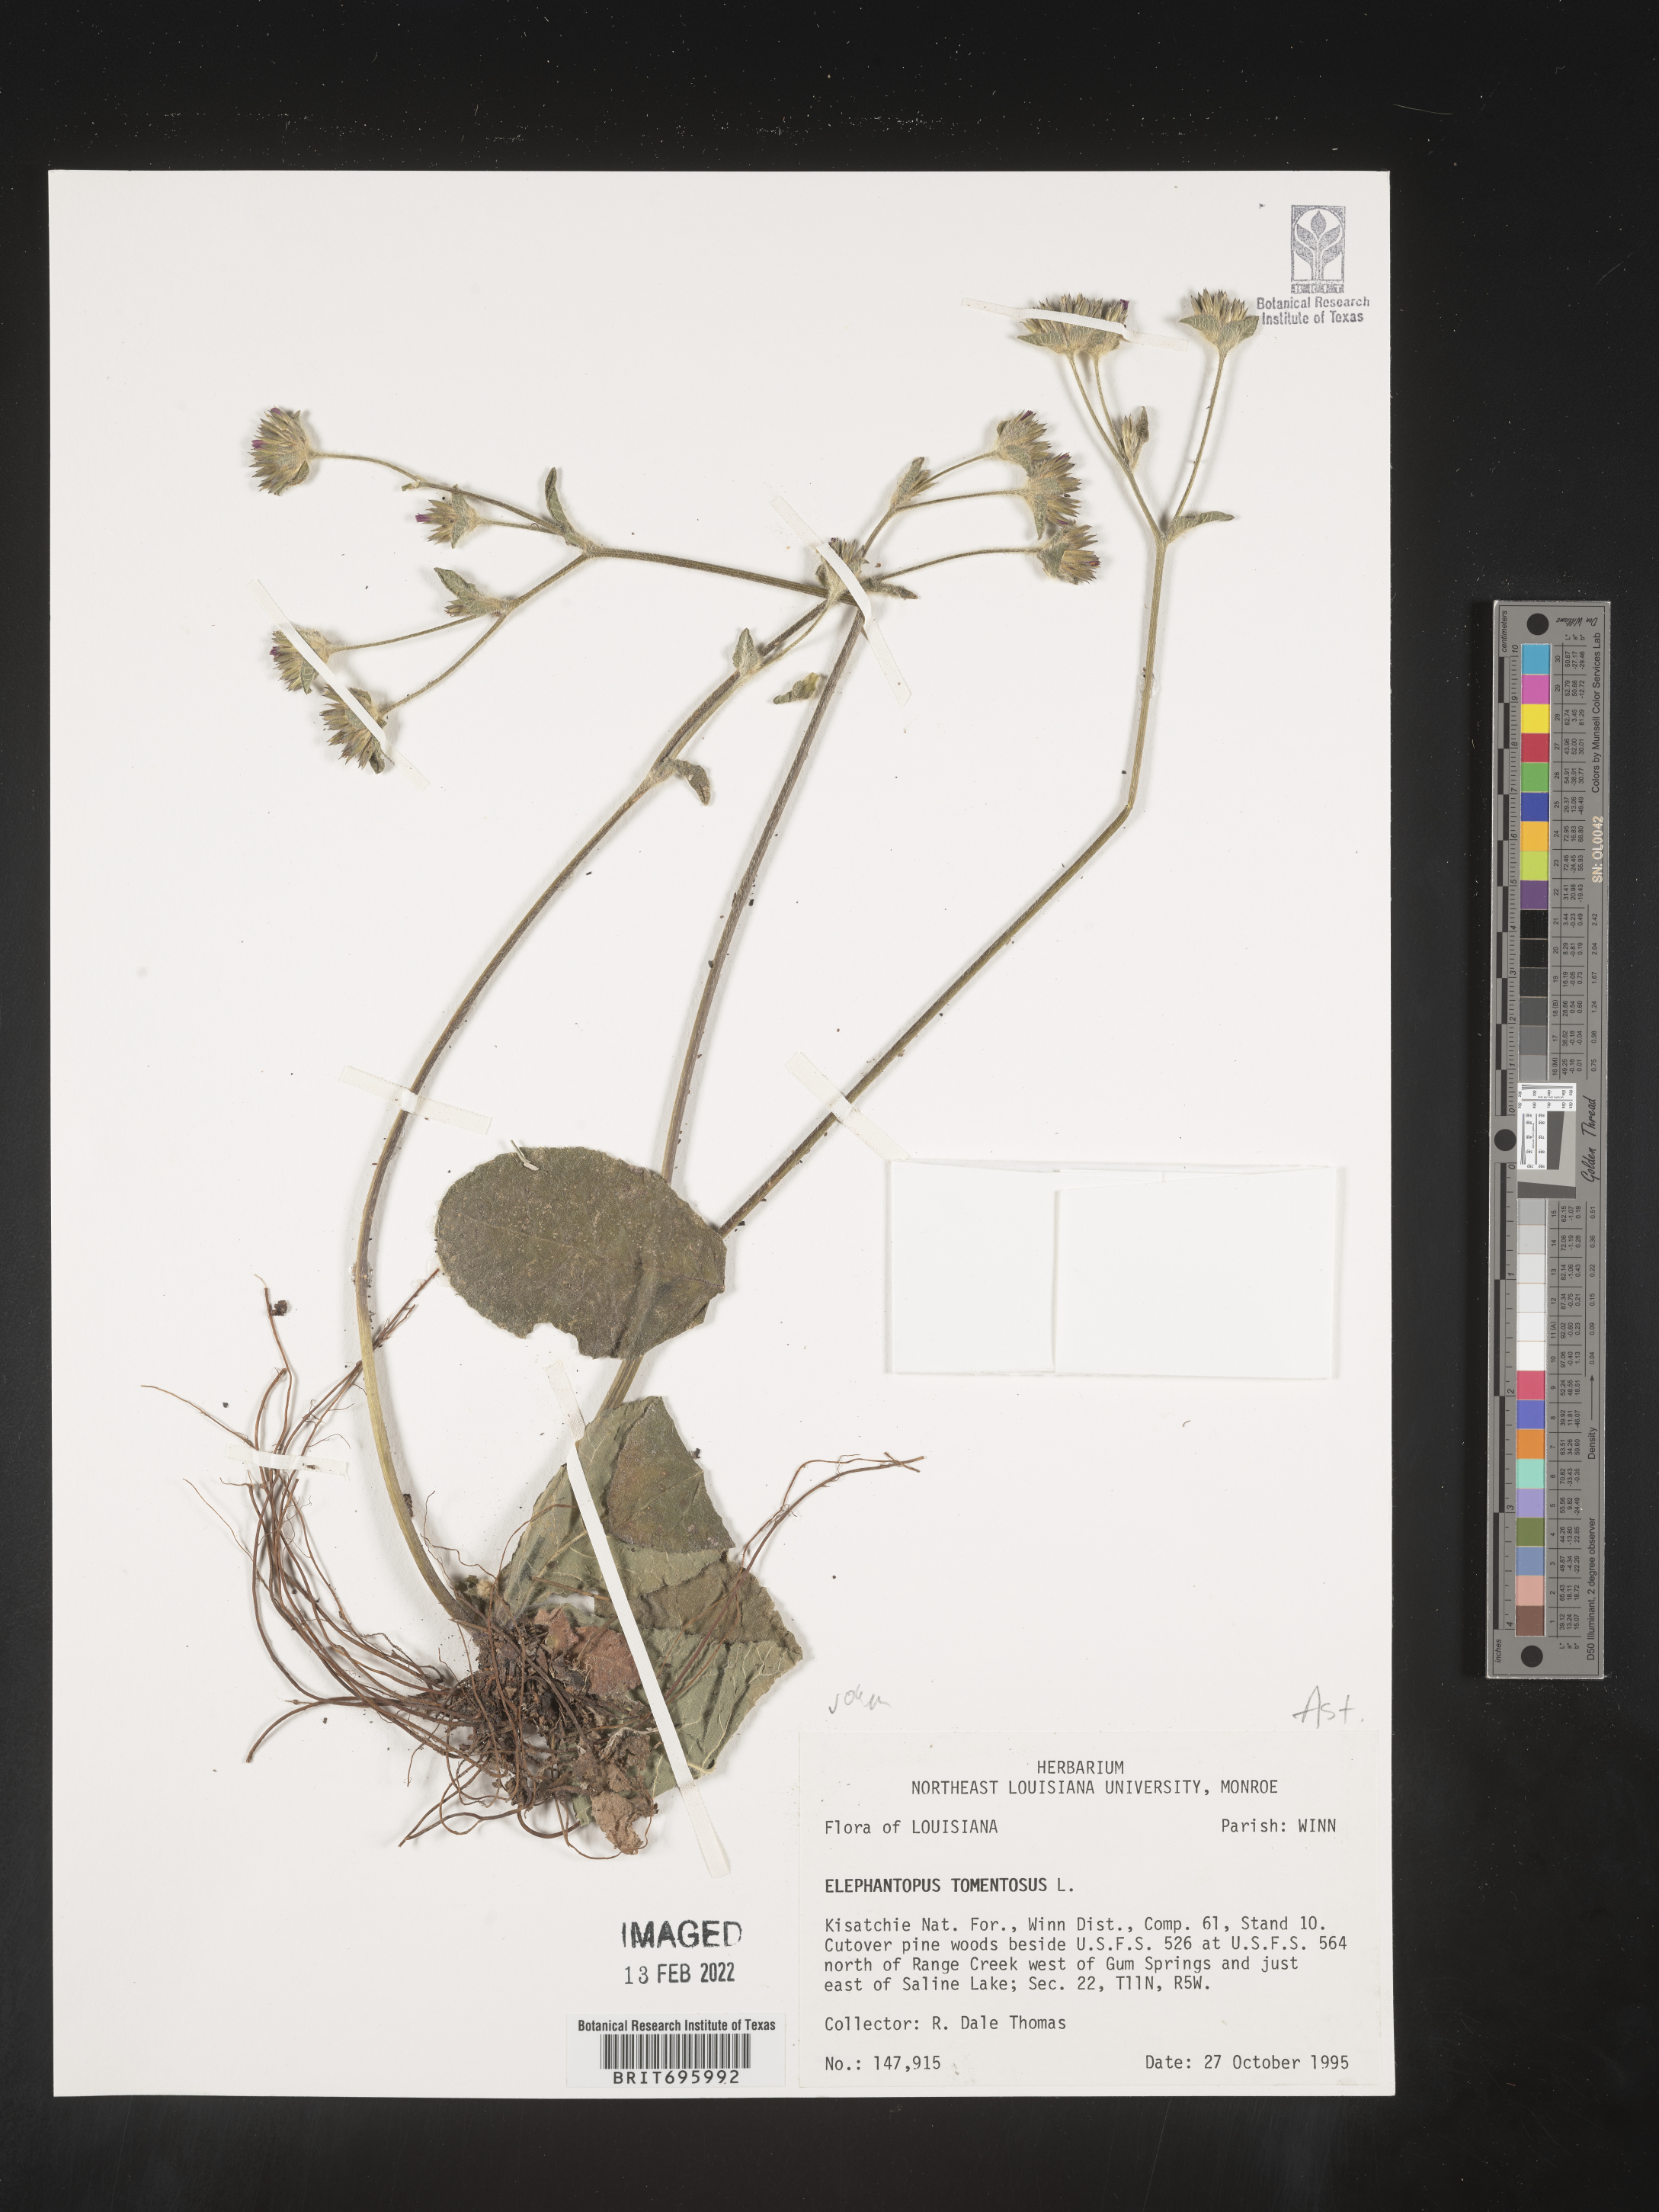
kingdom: Plantae
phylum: Tracheophyta
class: Magnoliopsida
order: Asterales
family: Asteraceae
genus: Elephantopus
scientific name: Elephantopus tomentosus
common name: Tobacco-weed
